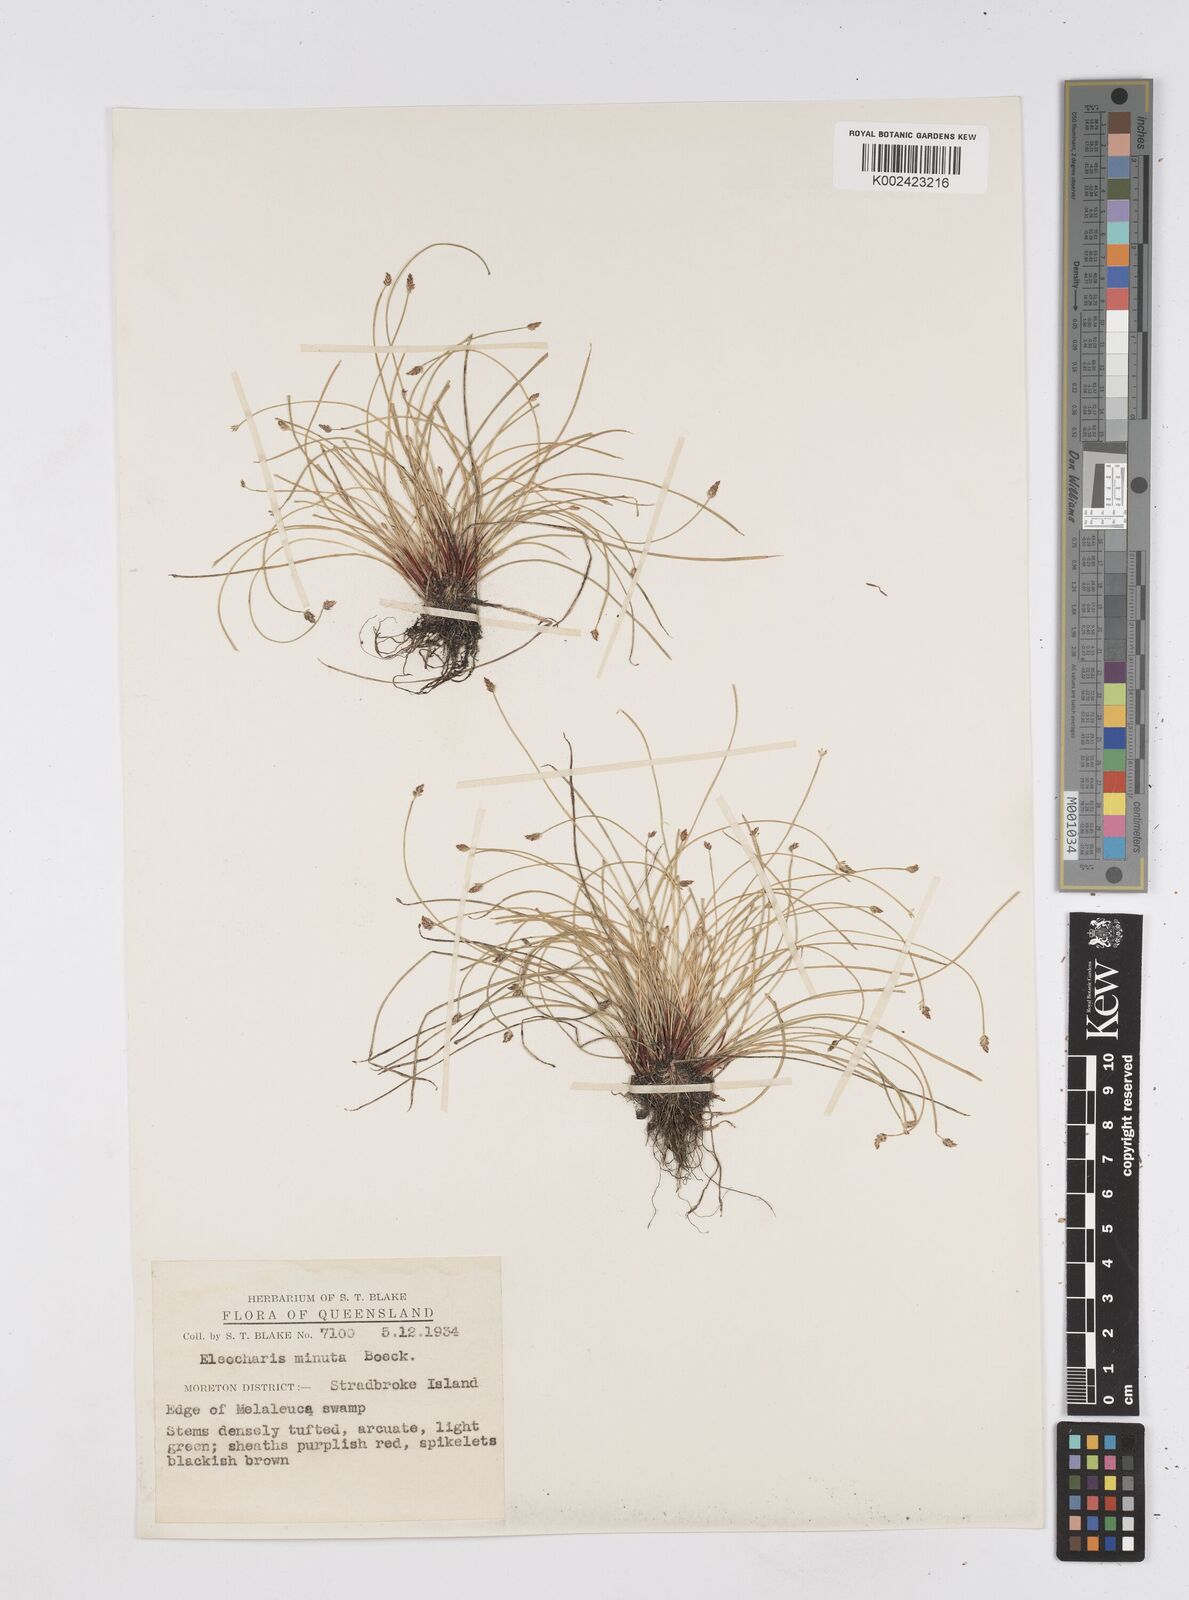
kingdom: Plantae
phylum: Tracheophyta
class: Liliopsida
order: Poales
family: Cyperaceae
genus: Eleocharis
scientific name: Eleocharis minuta
